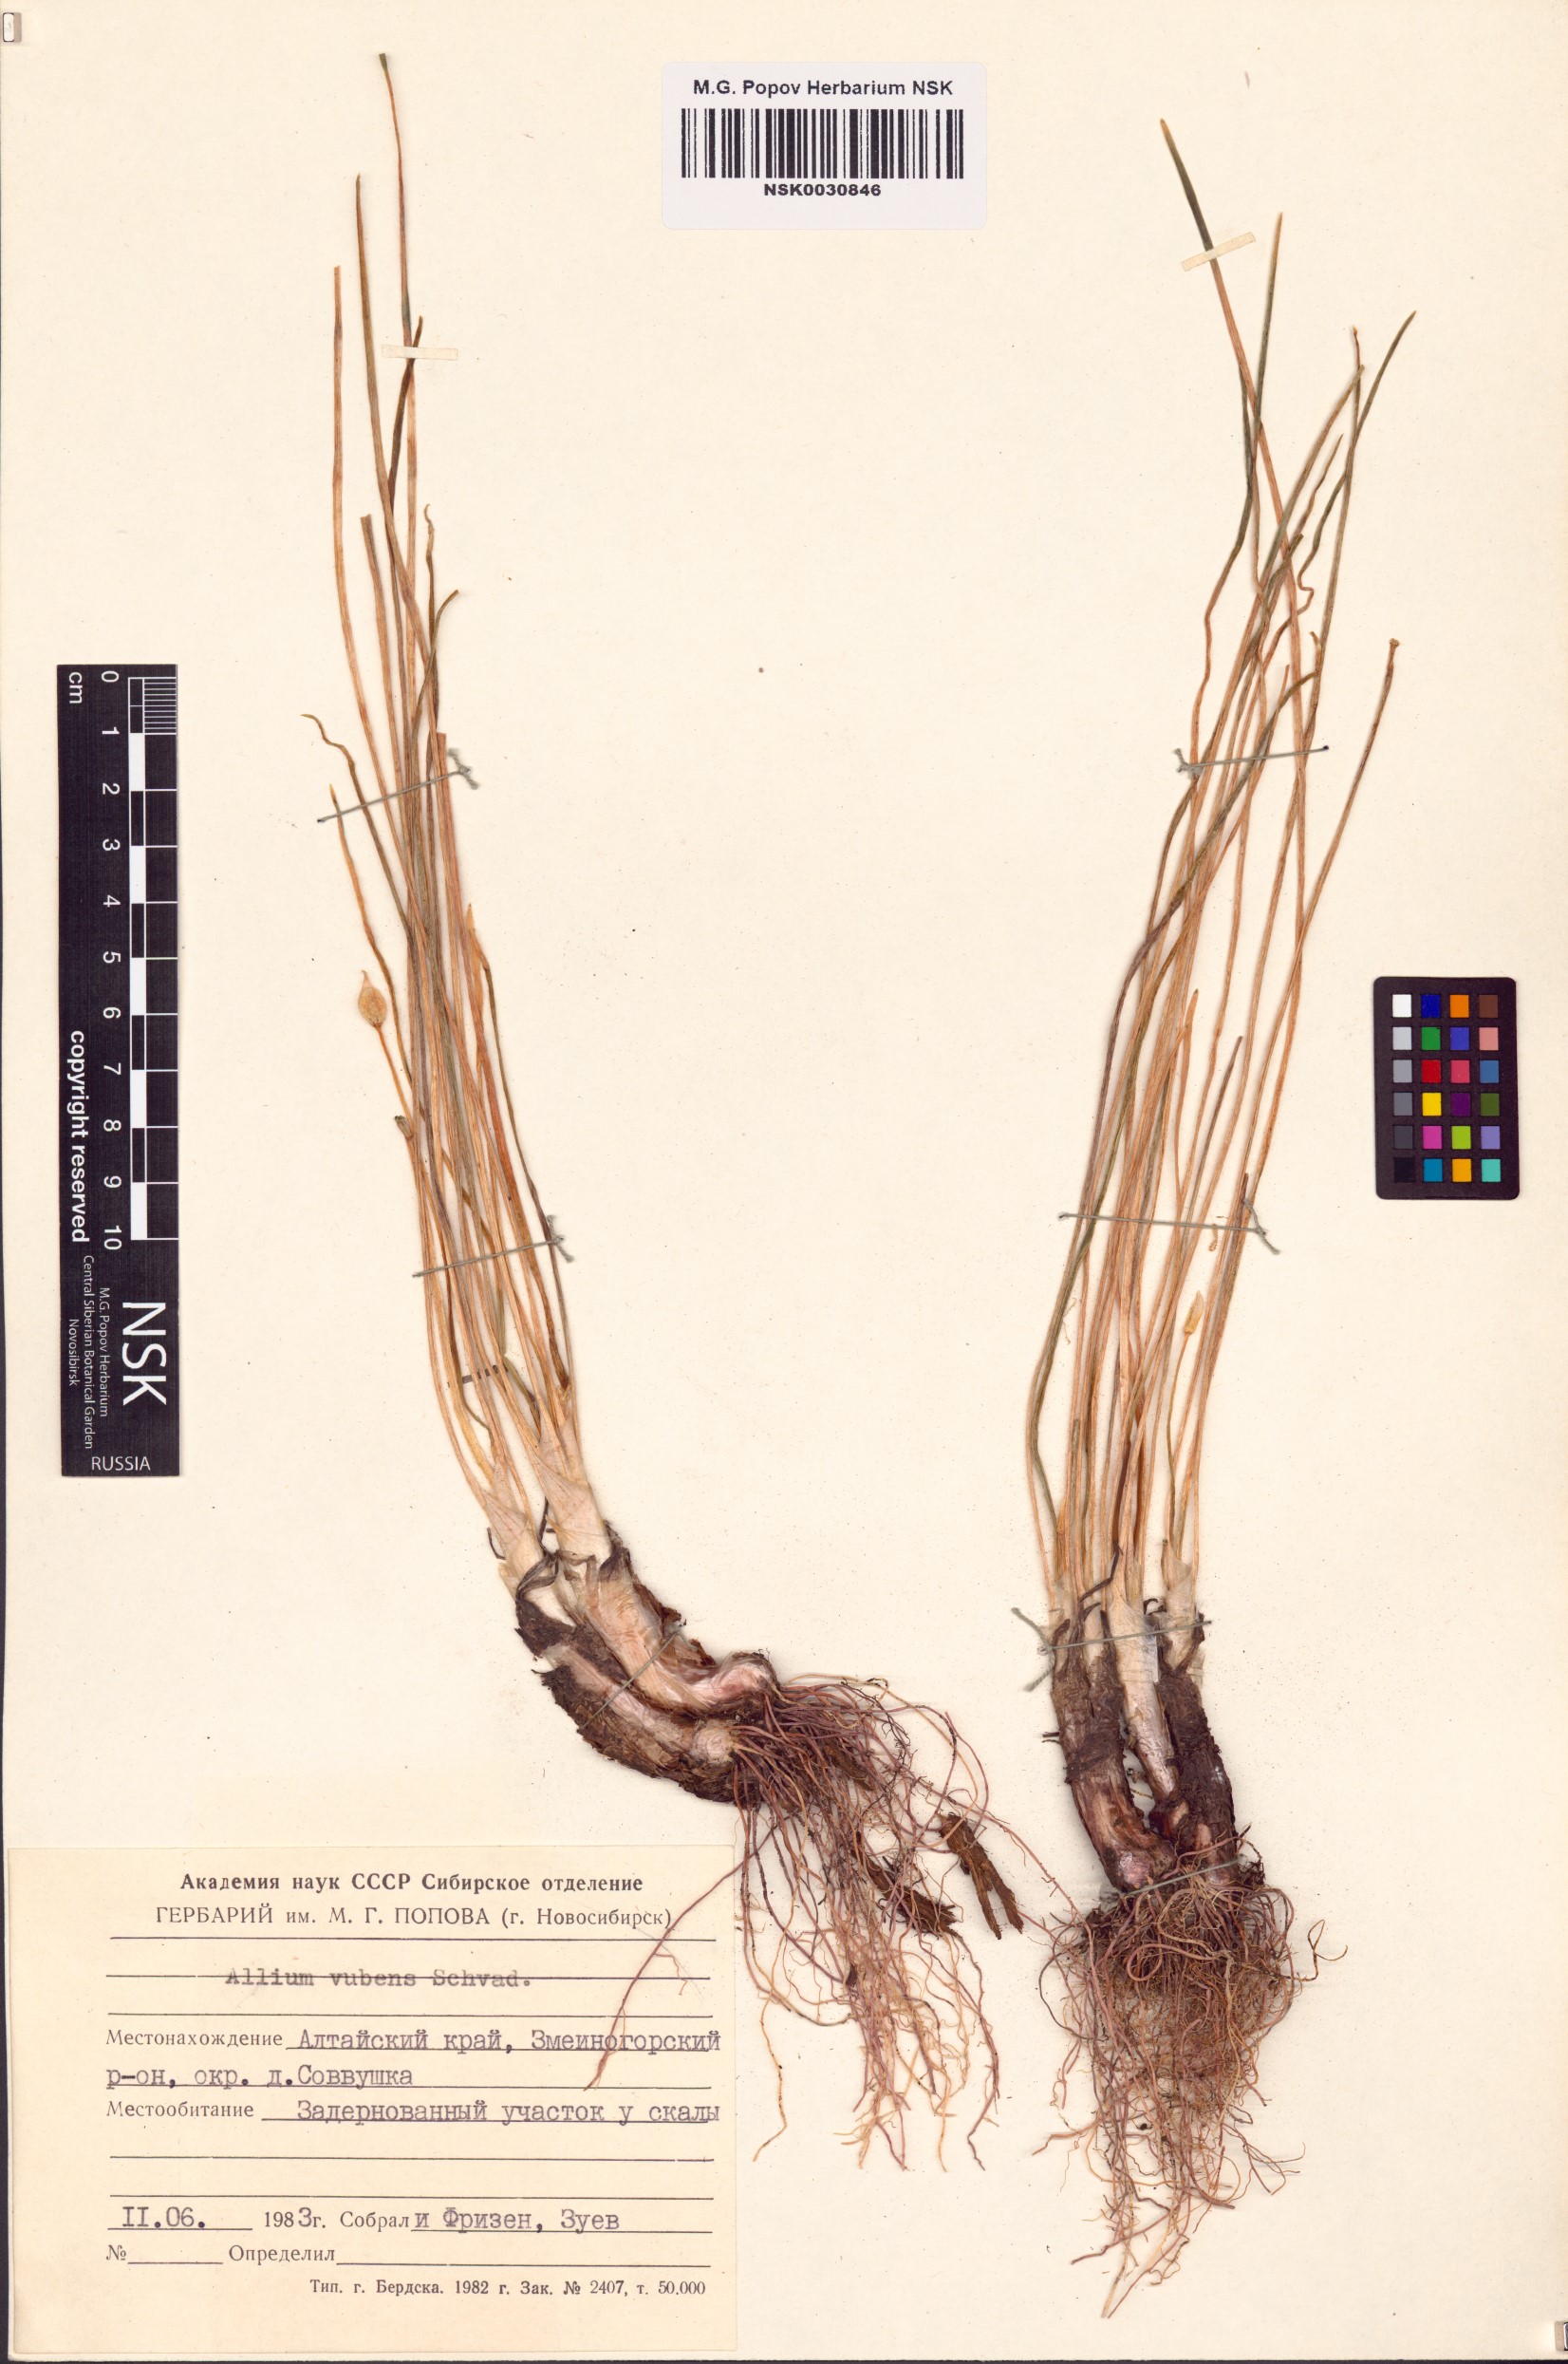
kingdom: Plantae
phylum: Tracheophyta
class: Liliopsida
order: Asparagales
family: Amaryllidaceae
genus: Allium
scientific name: Allium rubens
